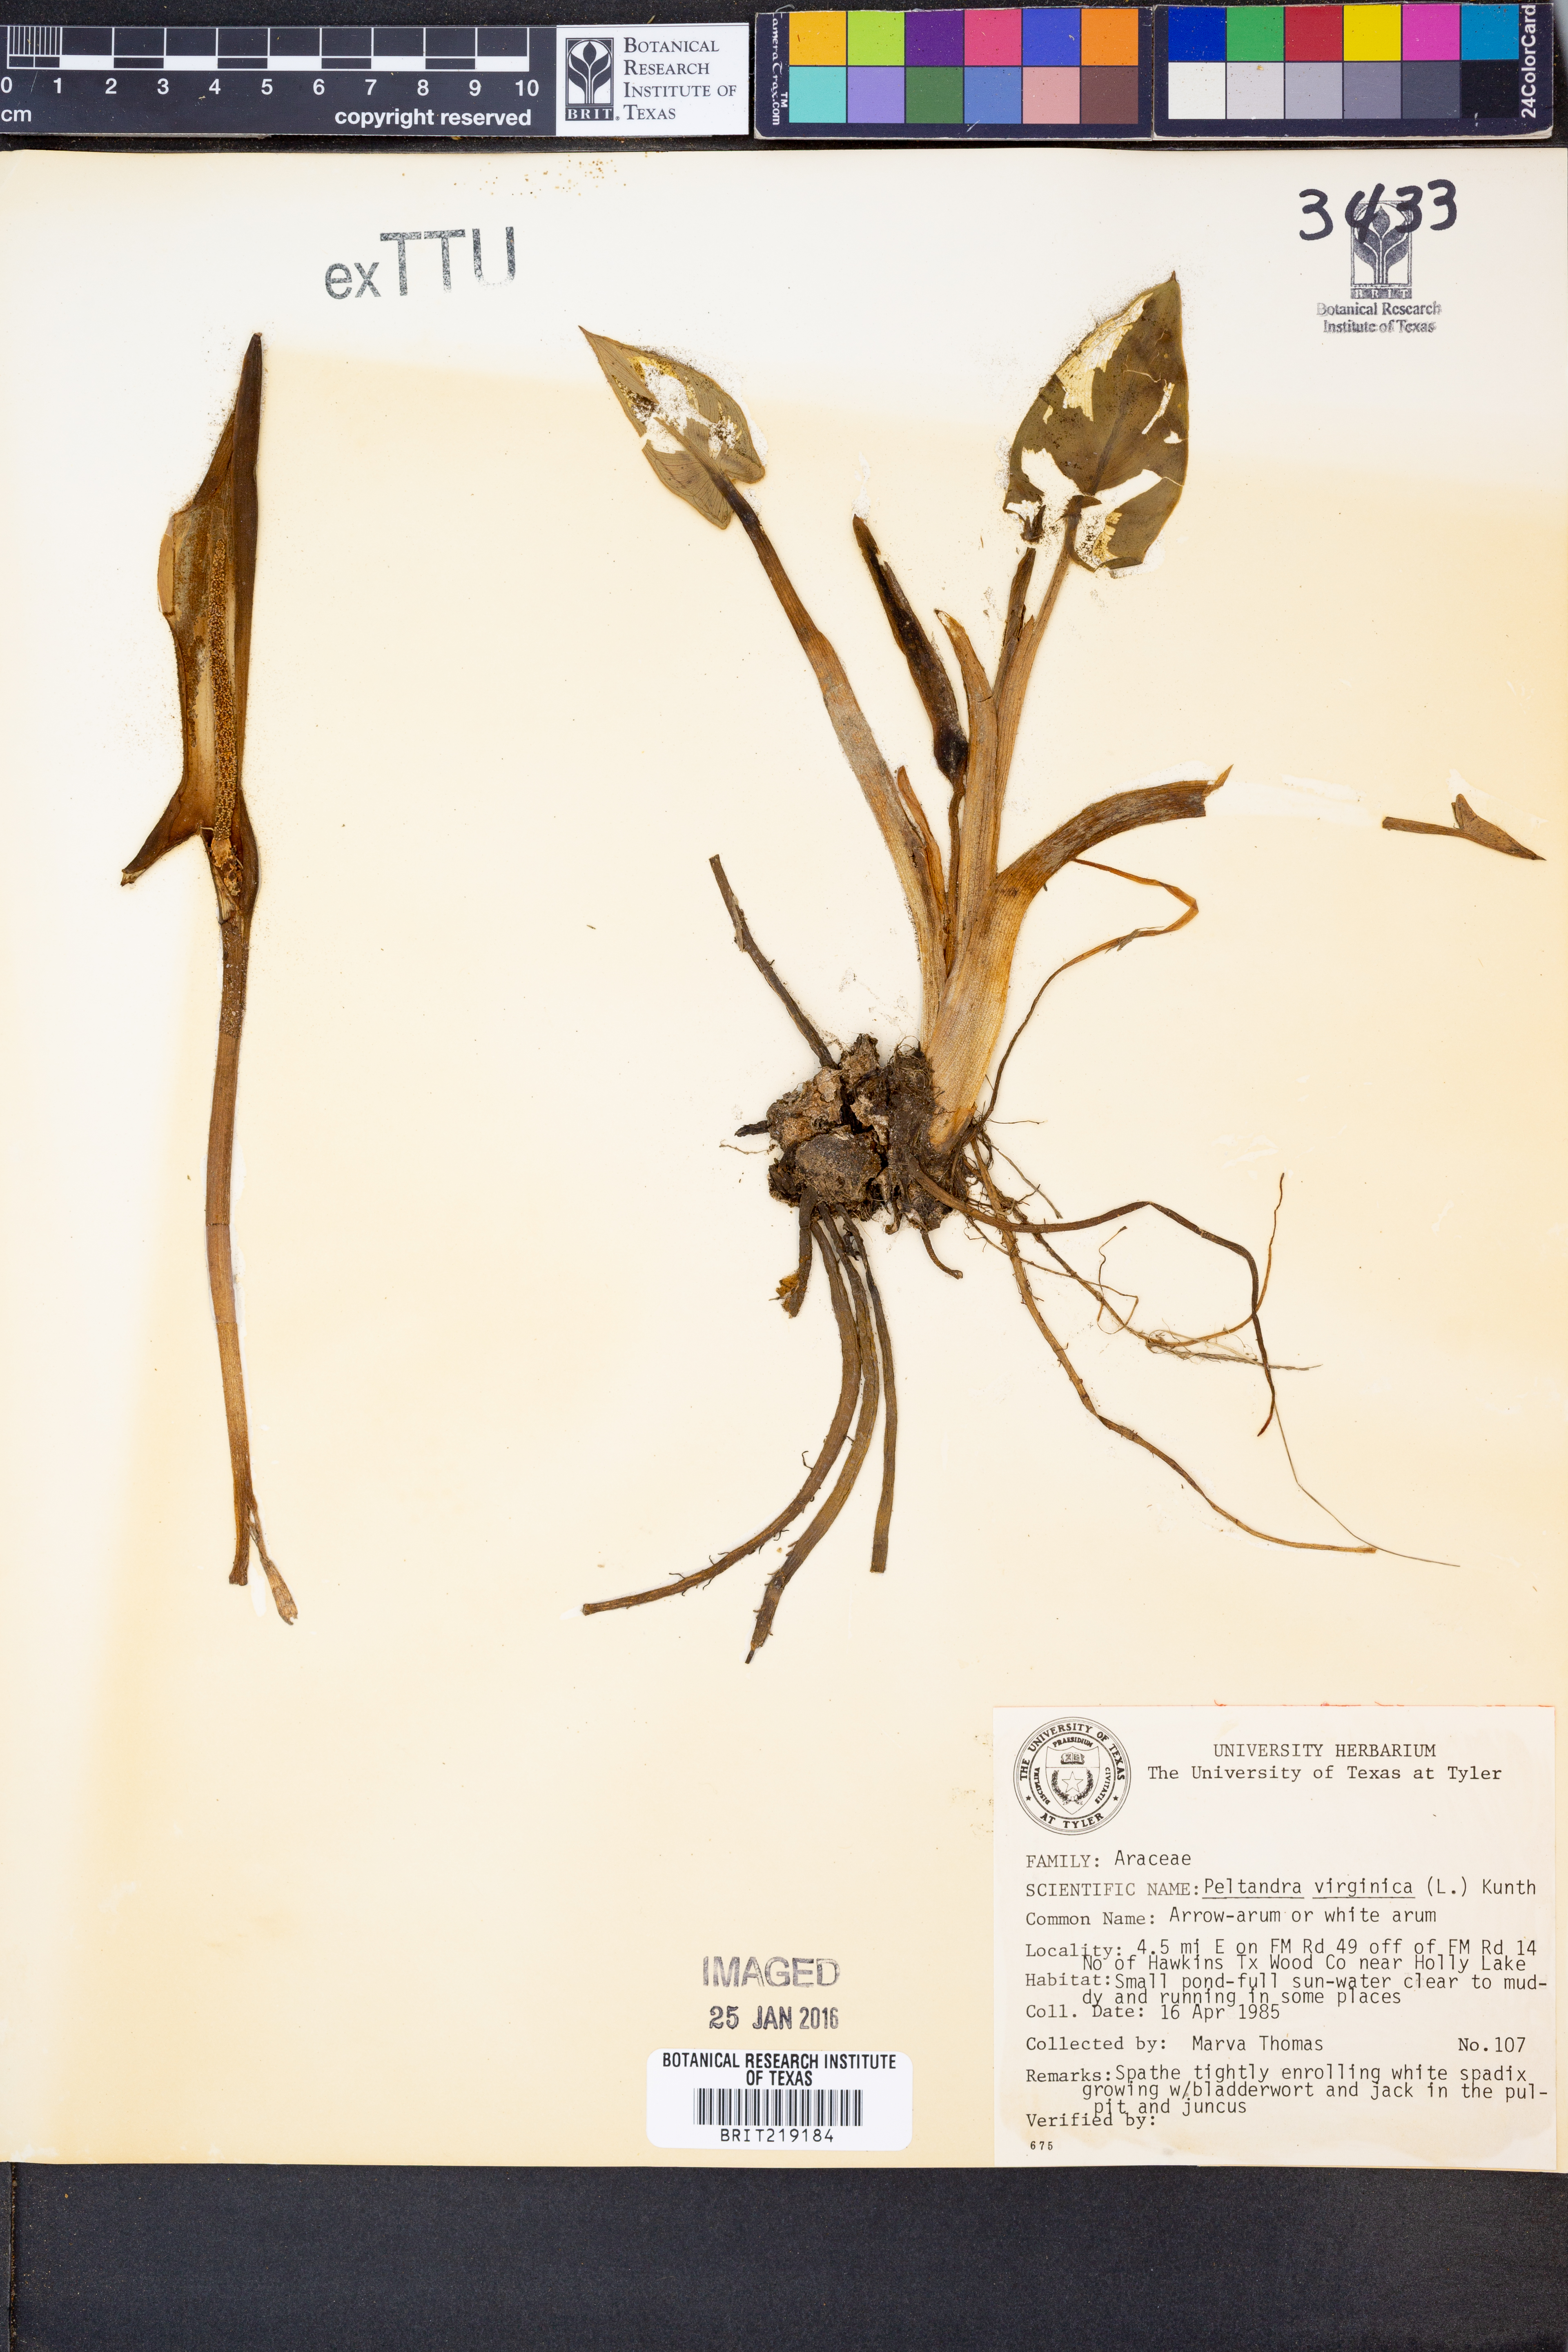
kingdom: Plantae
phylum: Tracheophyta
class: Liliopsida
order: Alismatales
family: Araceae
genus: Peltandra
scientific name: Peltandra virginica
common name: Arrow arum
